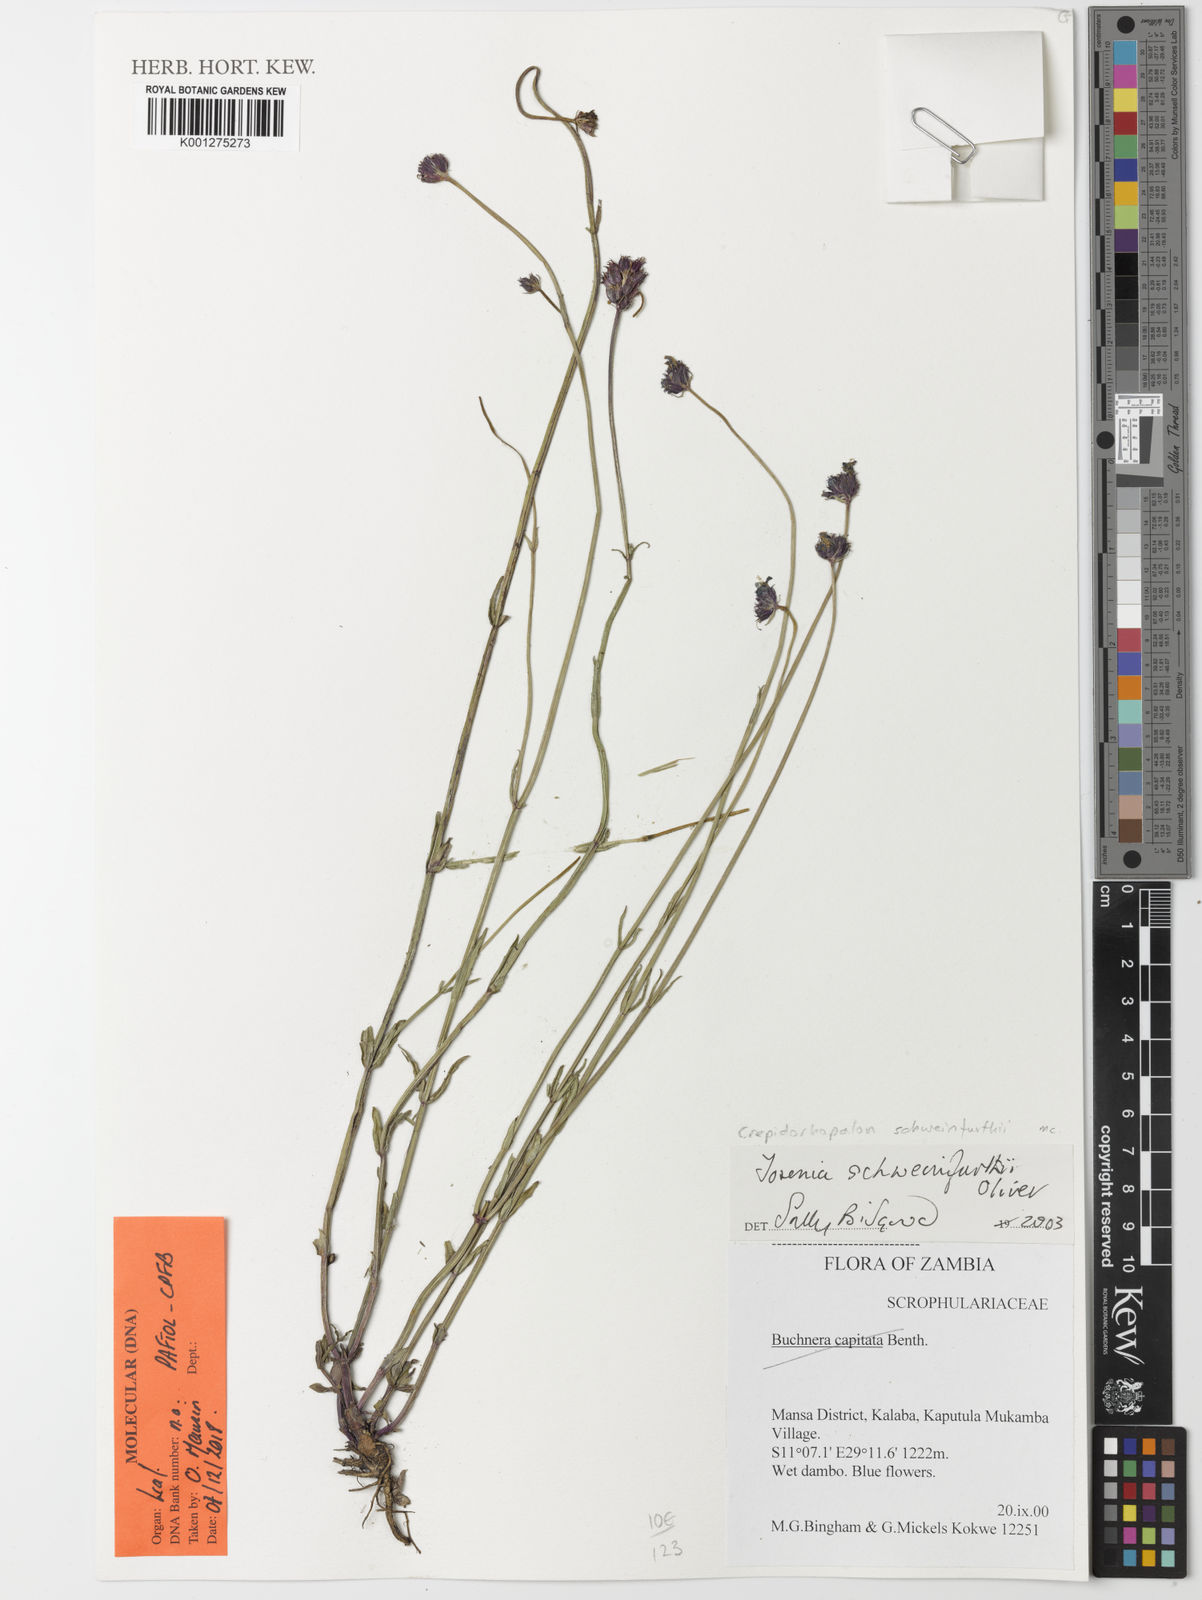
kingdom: Plantae
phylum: Tracheophyta
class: Magnoliopsida
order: Lamiales
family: Linderniaceae
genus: Crepidorhopalon
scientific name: Crepidorhopalon schweinfurthii
